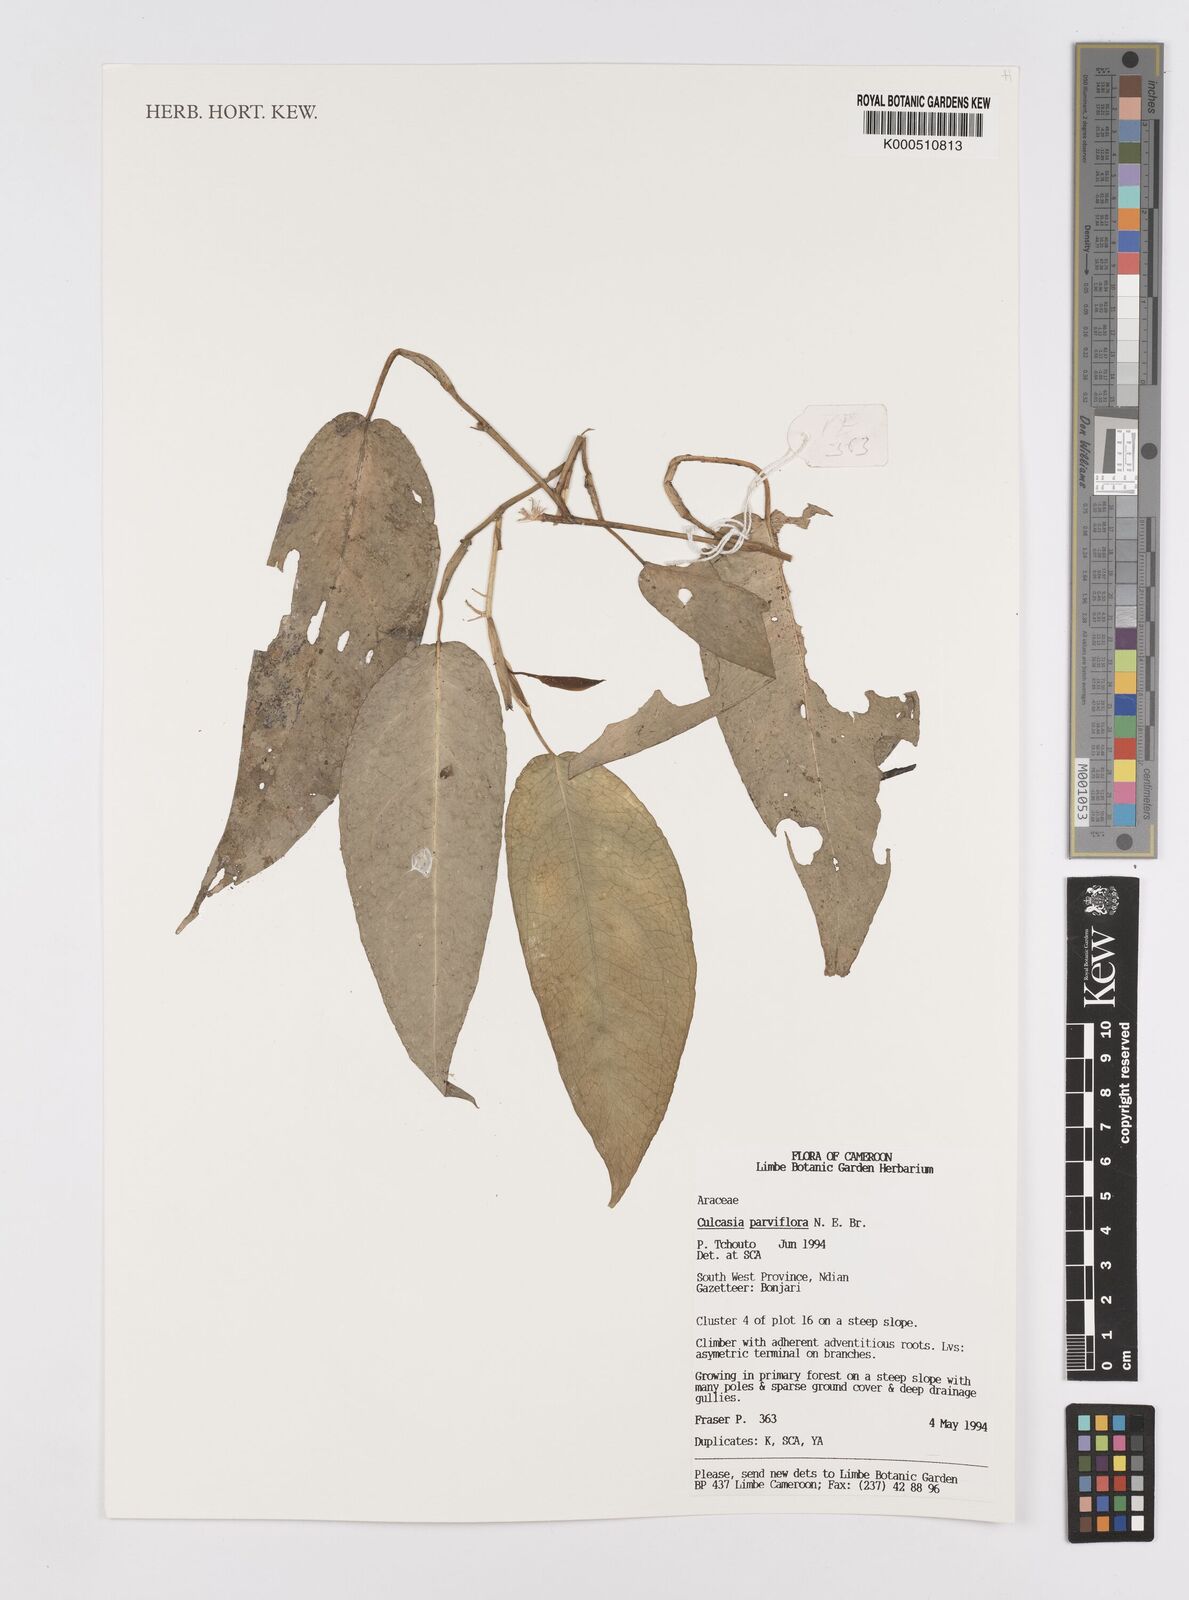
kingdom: Plantae
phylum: Tracheophyta
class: Liliopsida
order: Alismatales
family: Araceae
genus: Culcasia
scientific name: Culcasia parviflora
